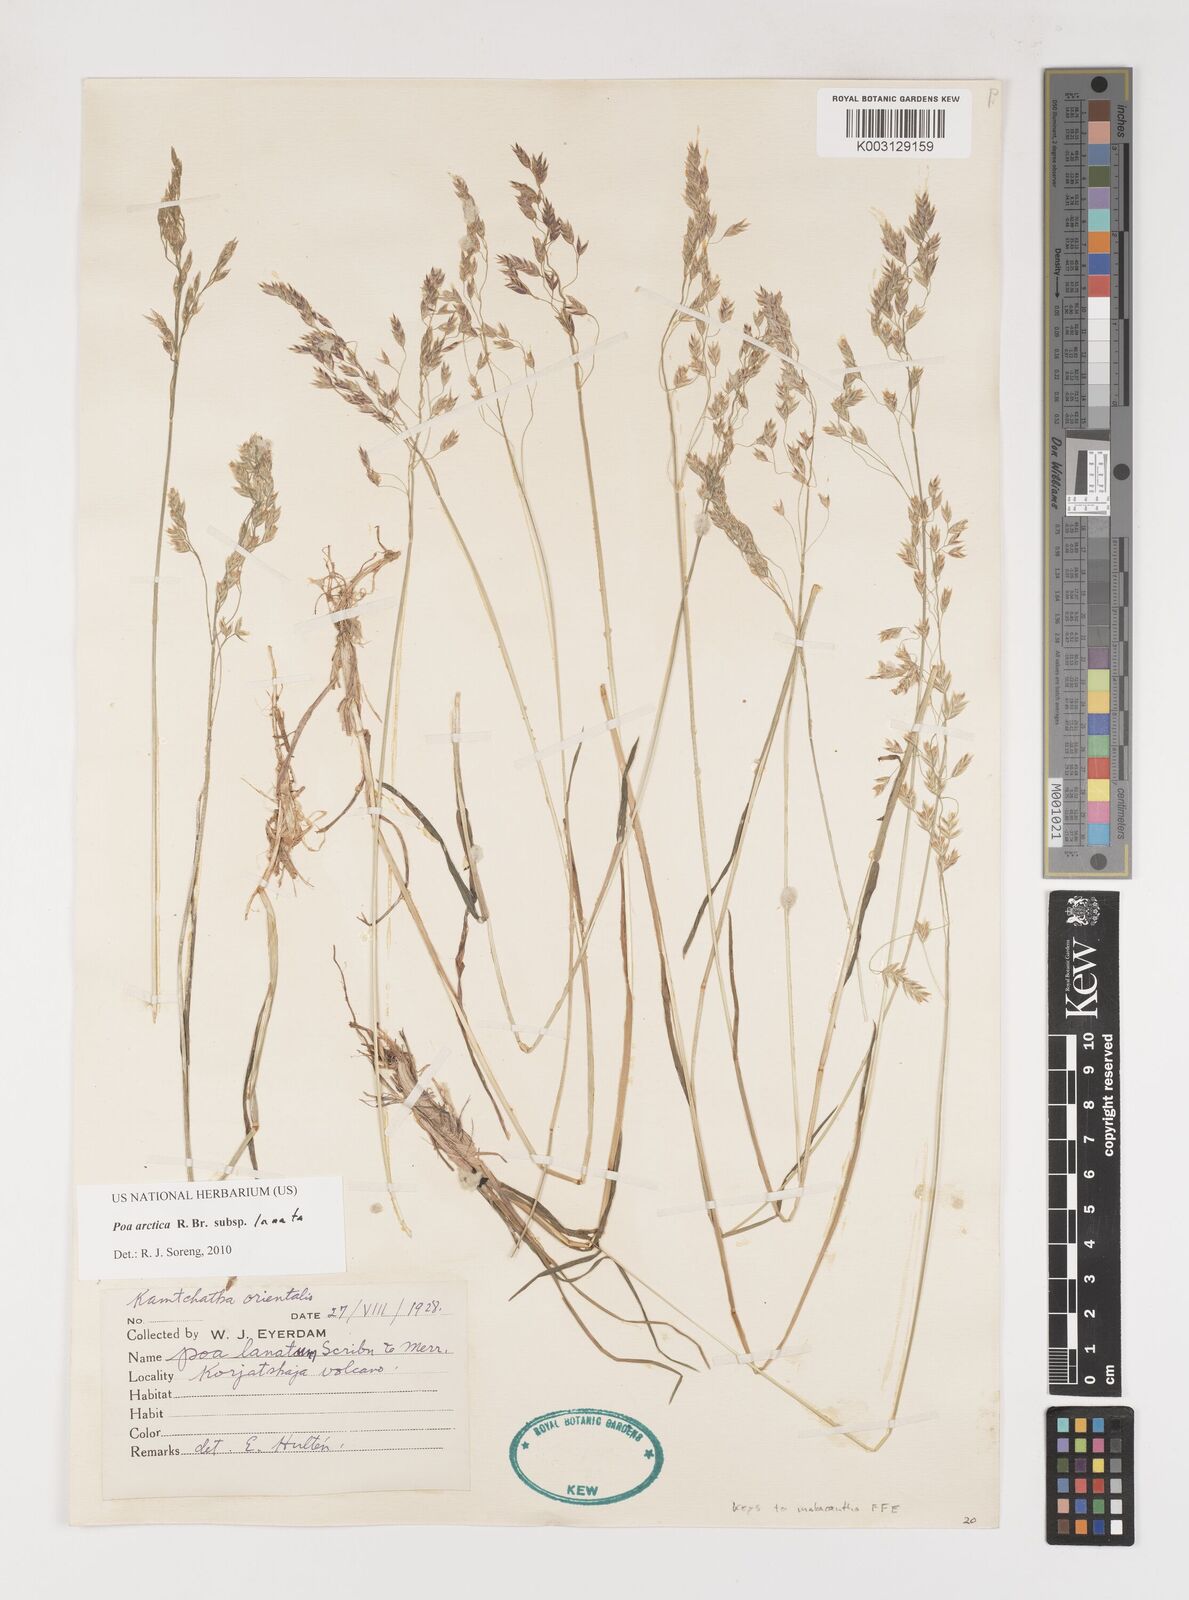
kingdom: Plantae
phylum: Tracheophyta
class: Liliopsida
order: Poales
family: Poaceae
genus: Poa
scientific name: Poa arctica
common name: Arctic bluegrass
